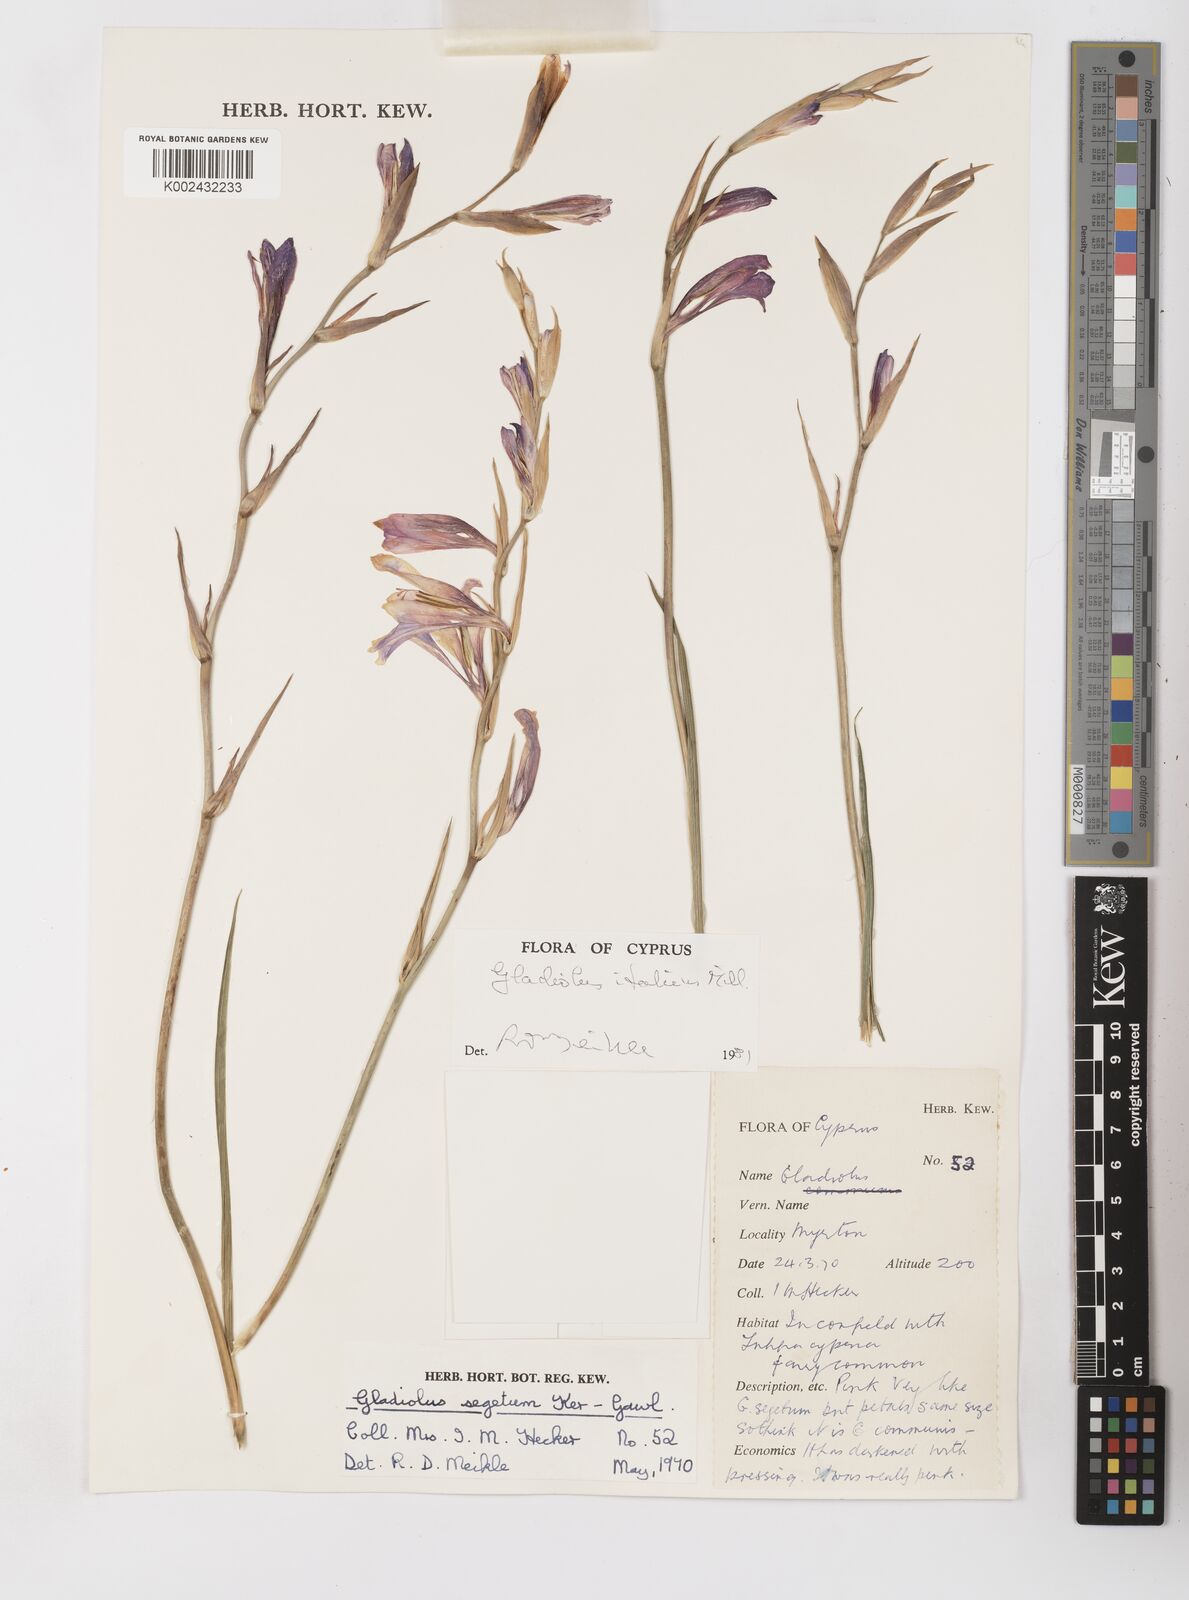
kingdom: Plantae
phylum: Tracheophyta
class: Liliopsida
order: Asparagales
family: Iridaceae
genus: Gladiolus
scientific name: Gladiolus italicus
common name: Field gladiolus
